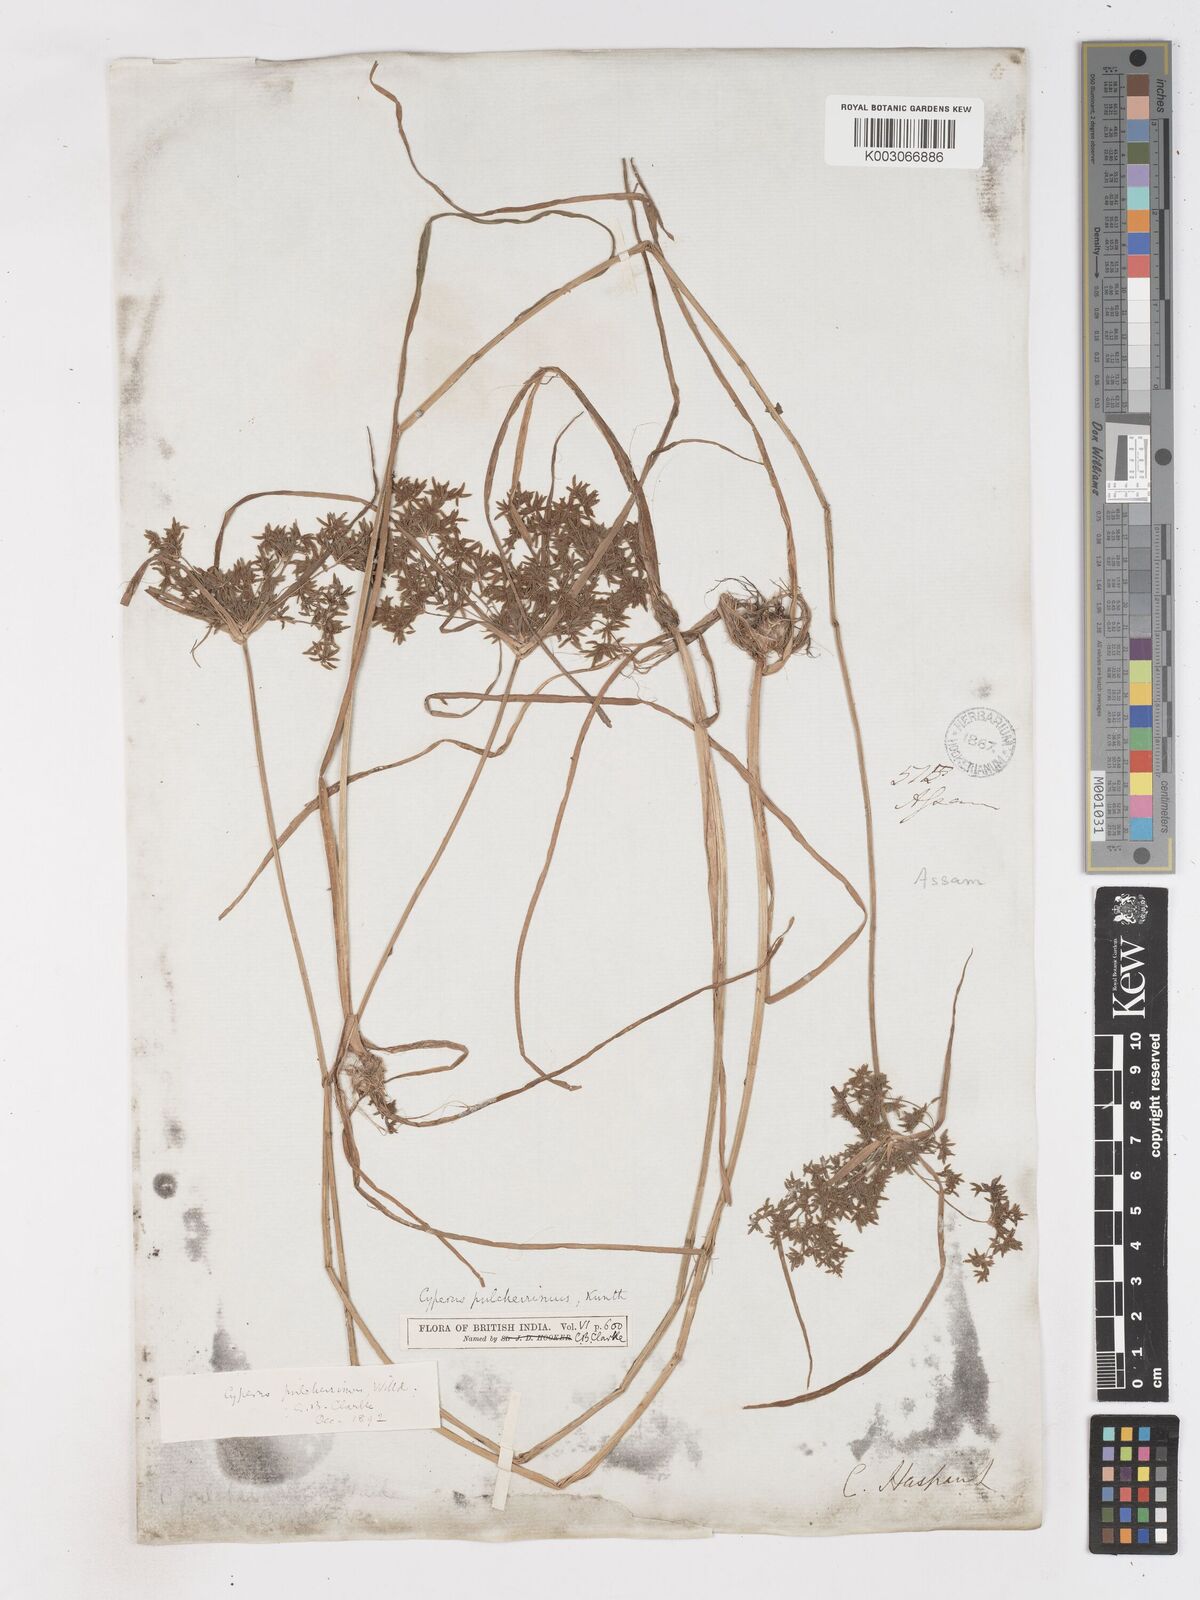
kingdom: Plantae
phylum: Tracheophyta
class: Liliopsida
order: Poales
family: Cyperaceae
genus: Cyperus
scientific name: Cyperus pulcherrimus
